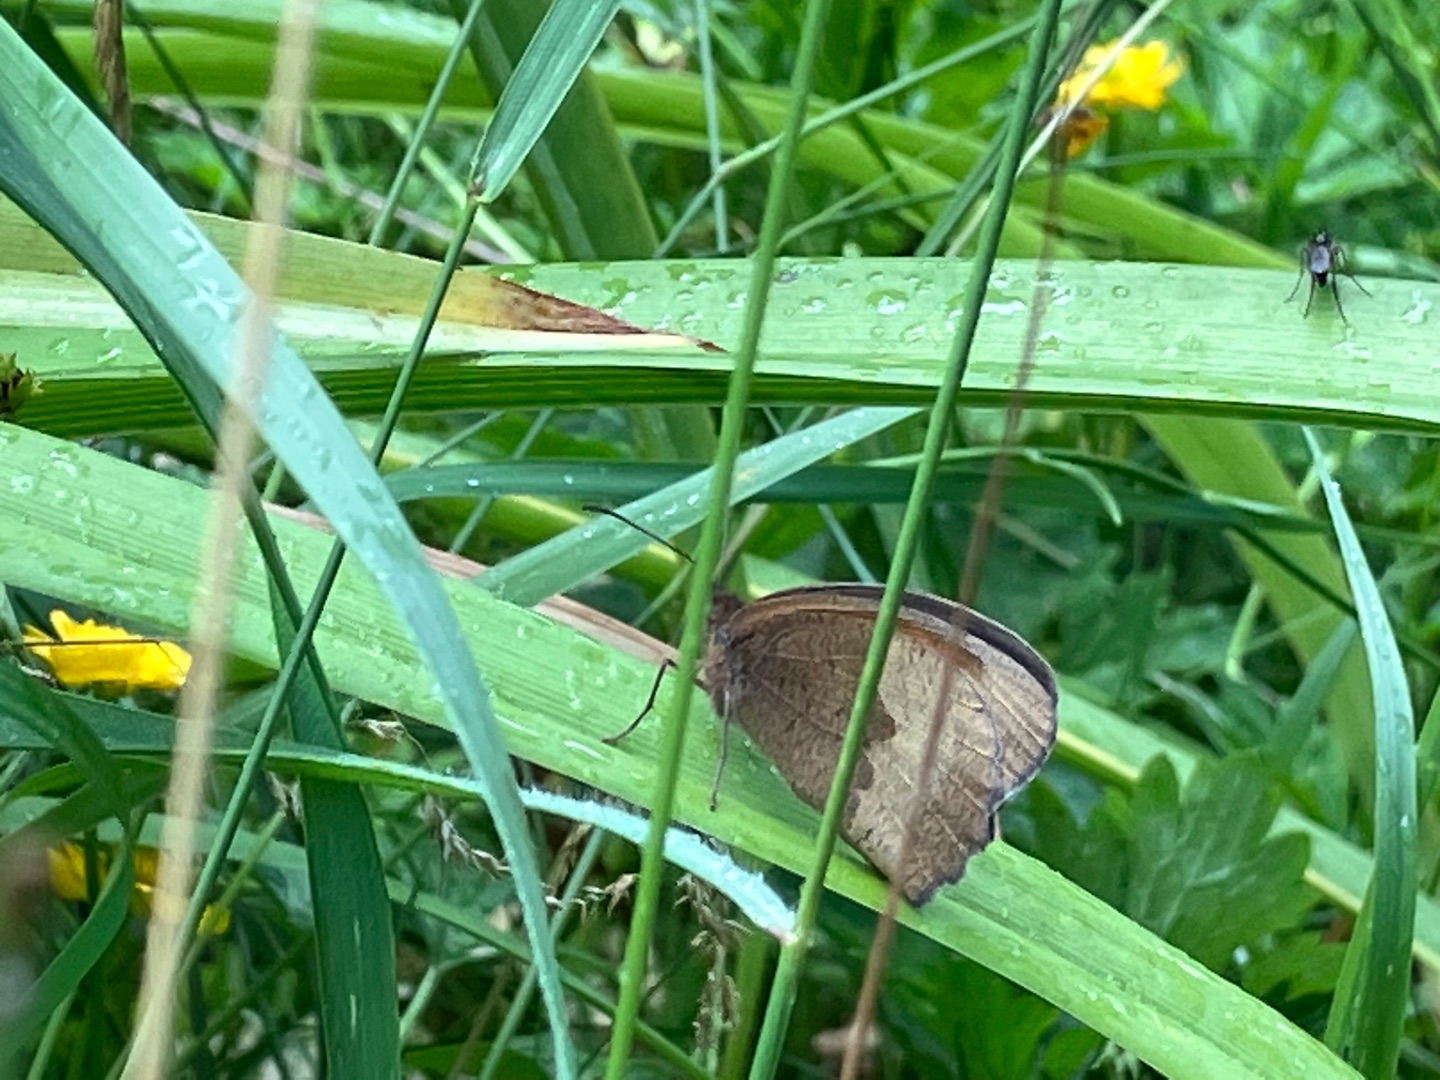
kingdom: Animalia
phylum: Arthropoda
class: Insecta
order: Lepidoptera
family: Nymphalidae
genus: Maniola
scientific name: Maniola jurtina
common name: Græsrandøje
